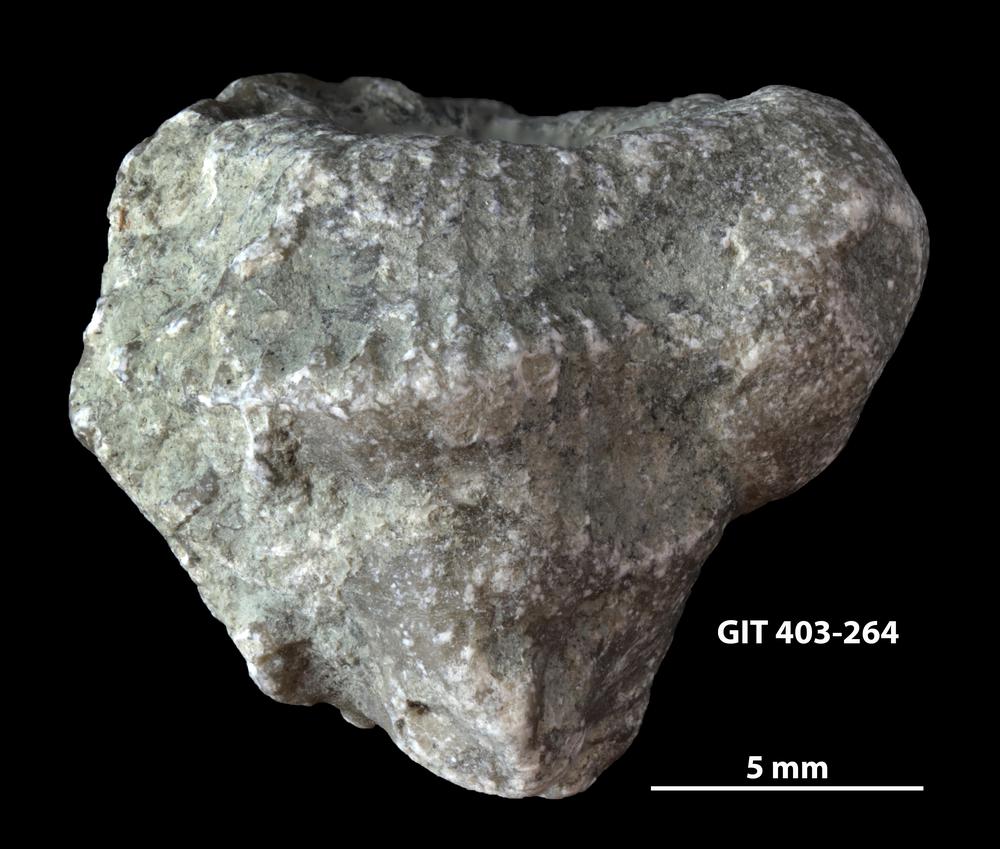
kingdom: Animalia
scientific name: Animalia
